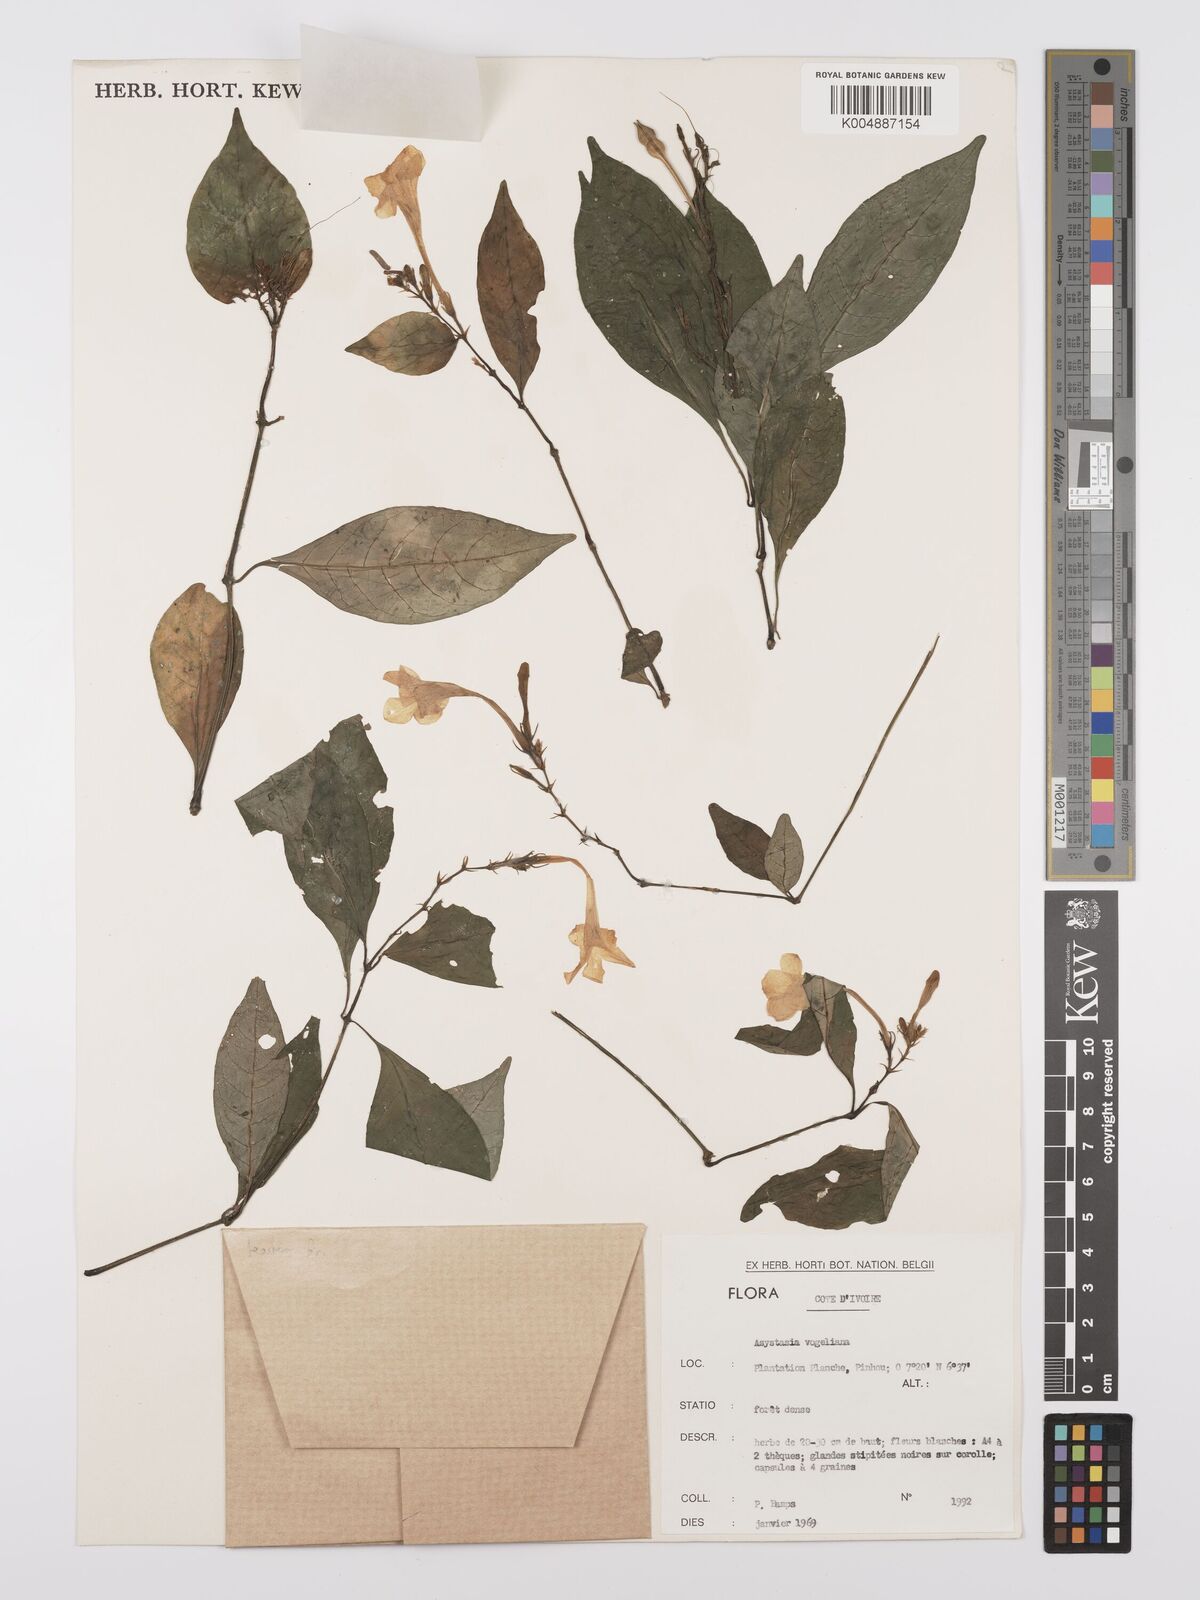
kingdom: Plantae
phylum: Tracheophyta
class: Magnoliopsida
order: Lamiales
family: Acanthaceae
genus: Asystasia
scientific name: Asystasia vogeliana
